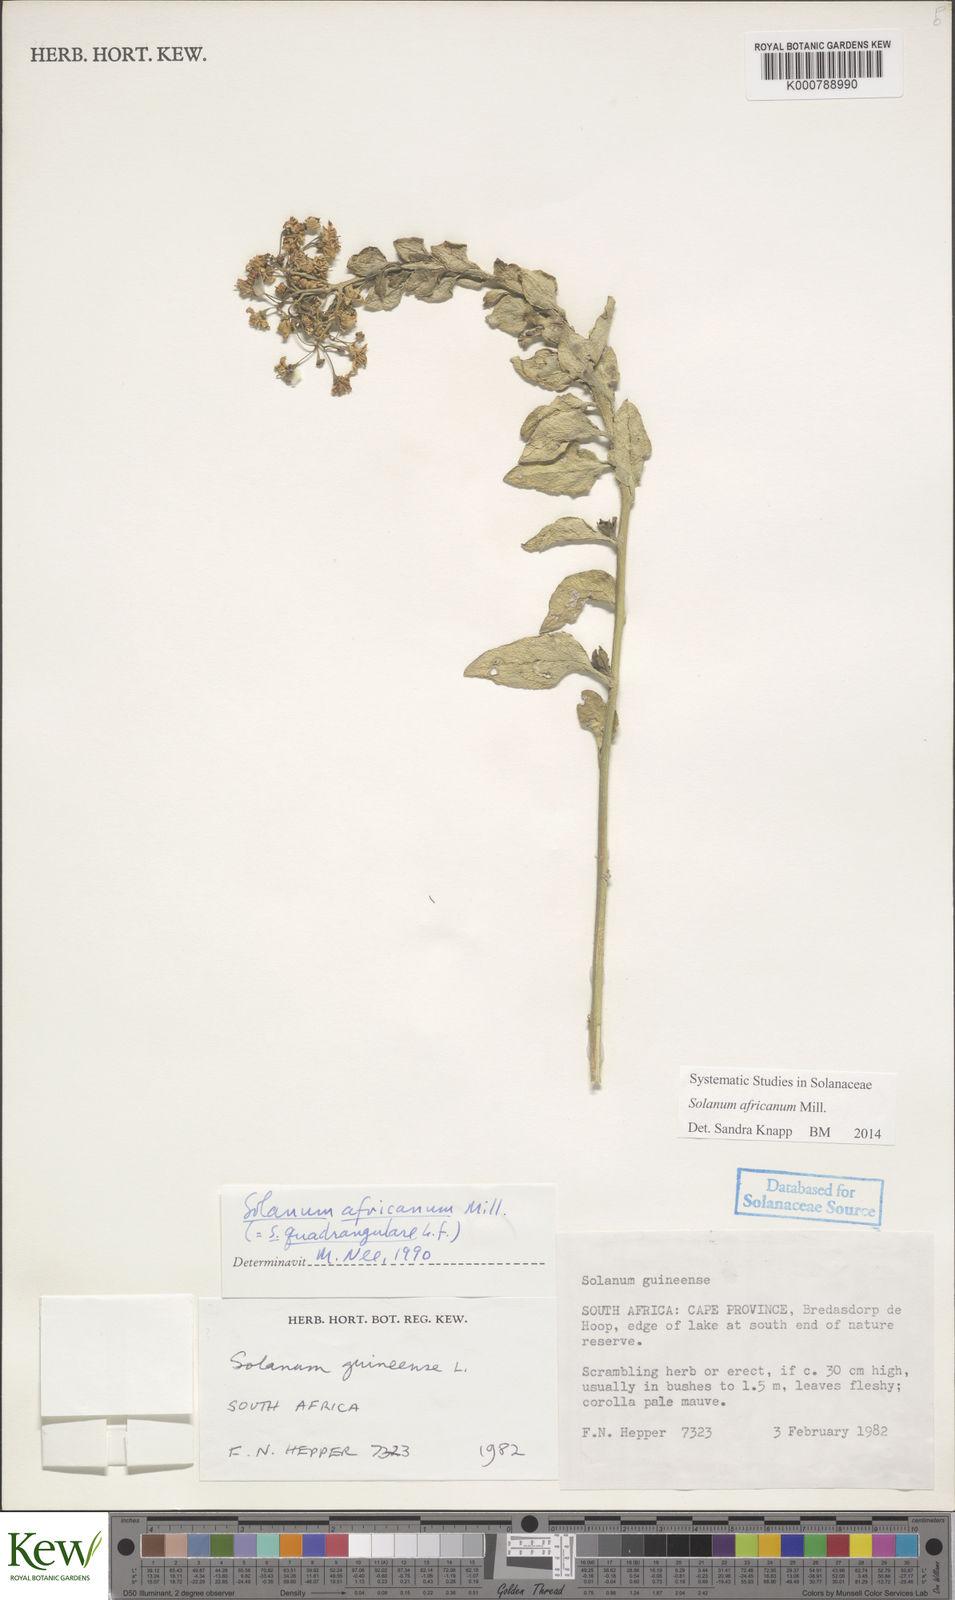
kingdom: Plantae
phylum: Tracheophyta
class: Magnoliopsida
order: Solanales
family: Solanaceae
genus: Solanum
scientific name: Solanum africanum
